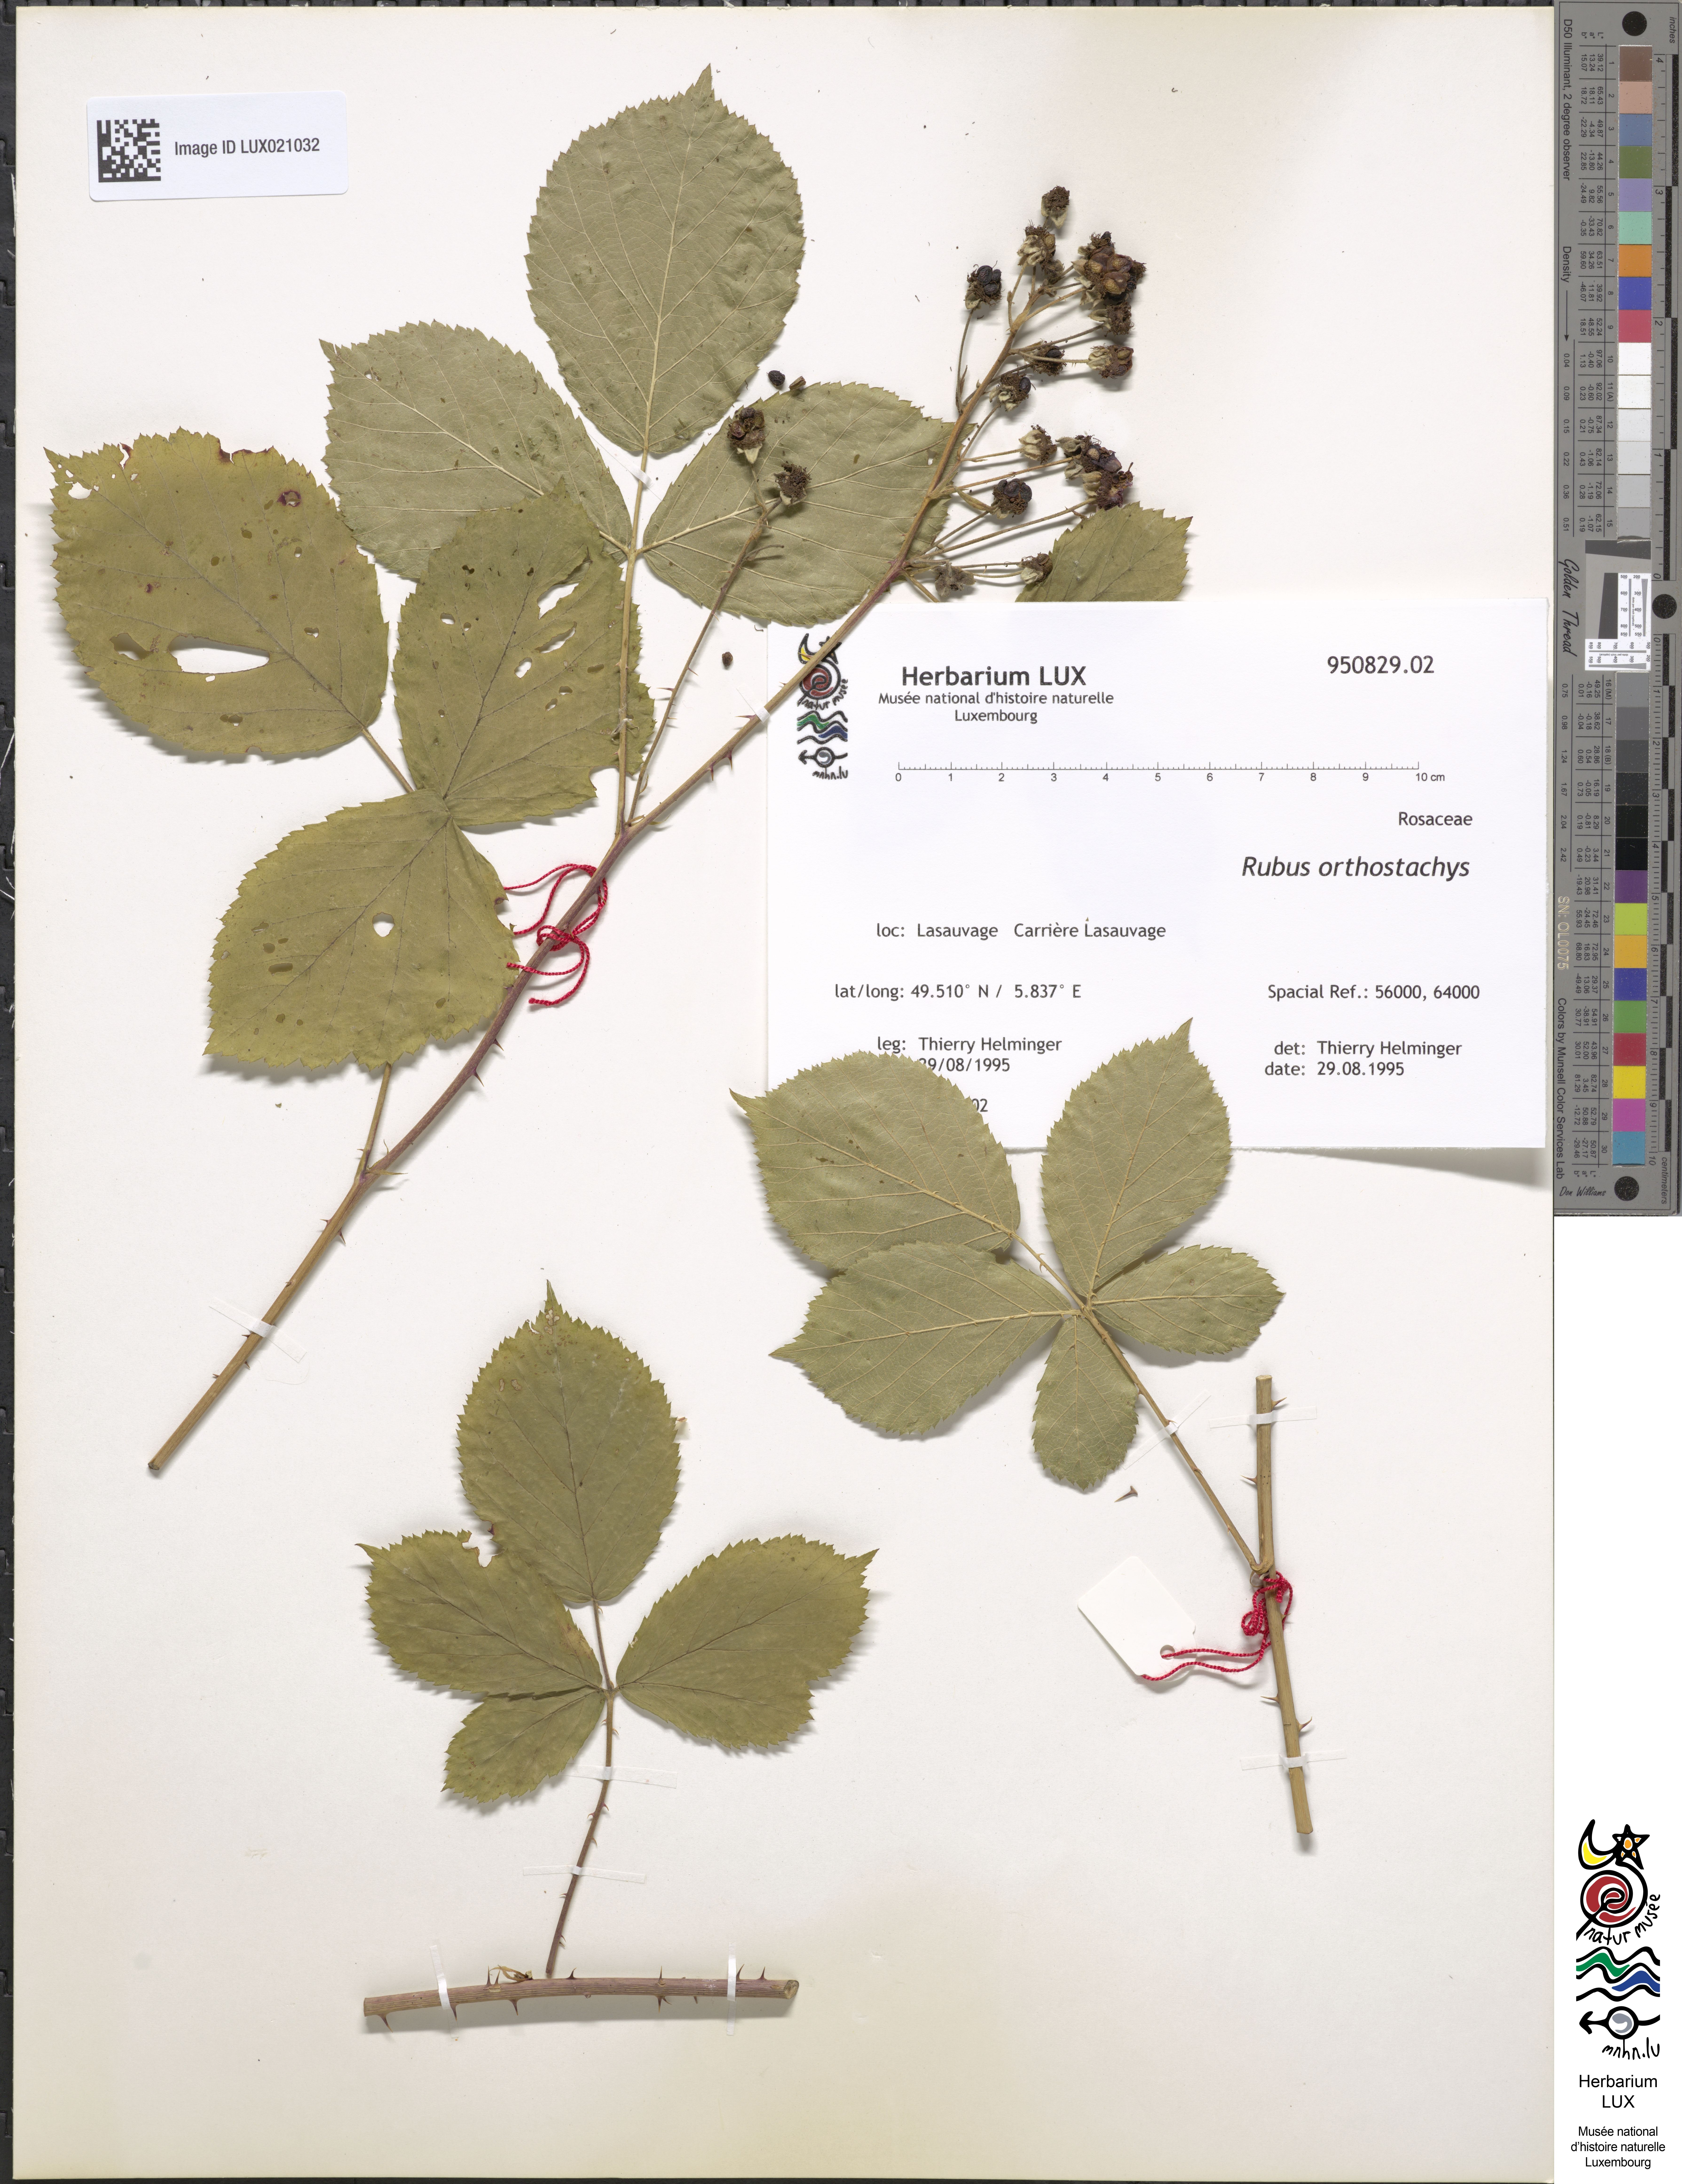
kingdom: Plantae
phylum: Tracheophyta
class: Magnoliopsida
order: Rosales
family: Rosaceae
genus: Rubus
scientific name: Rubus orthostachys
